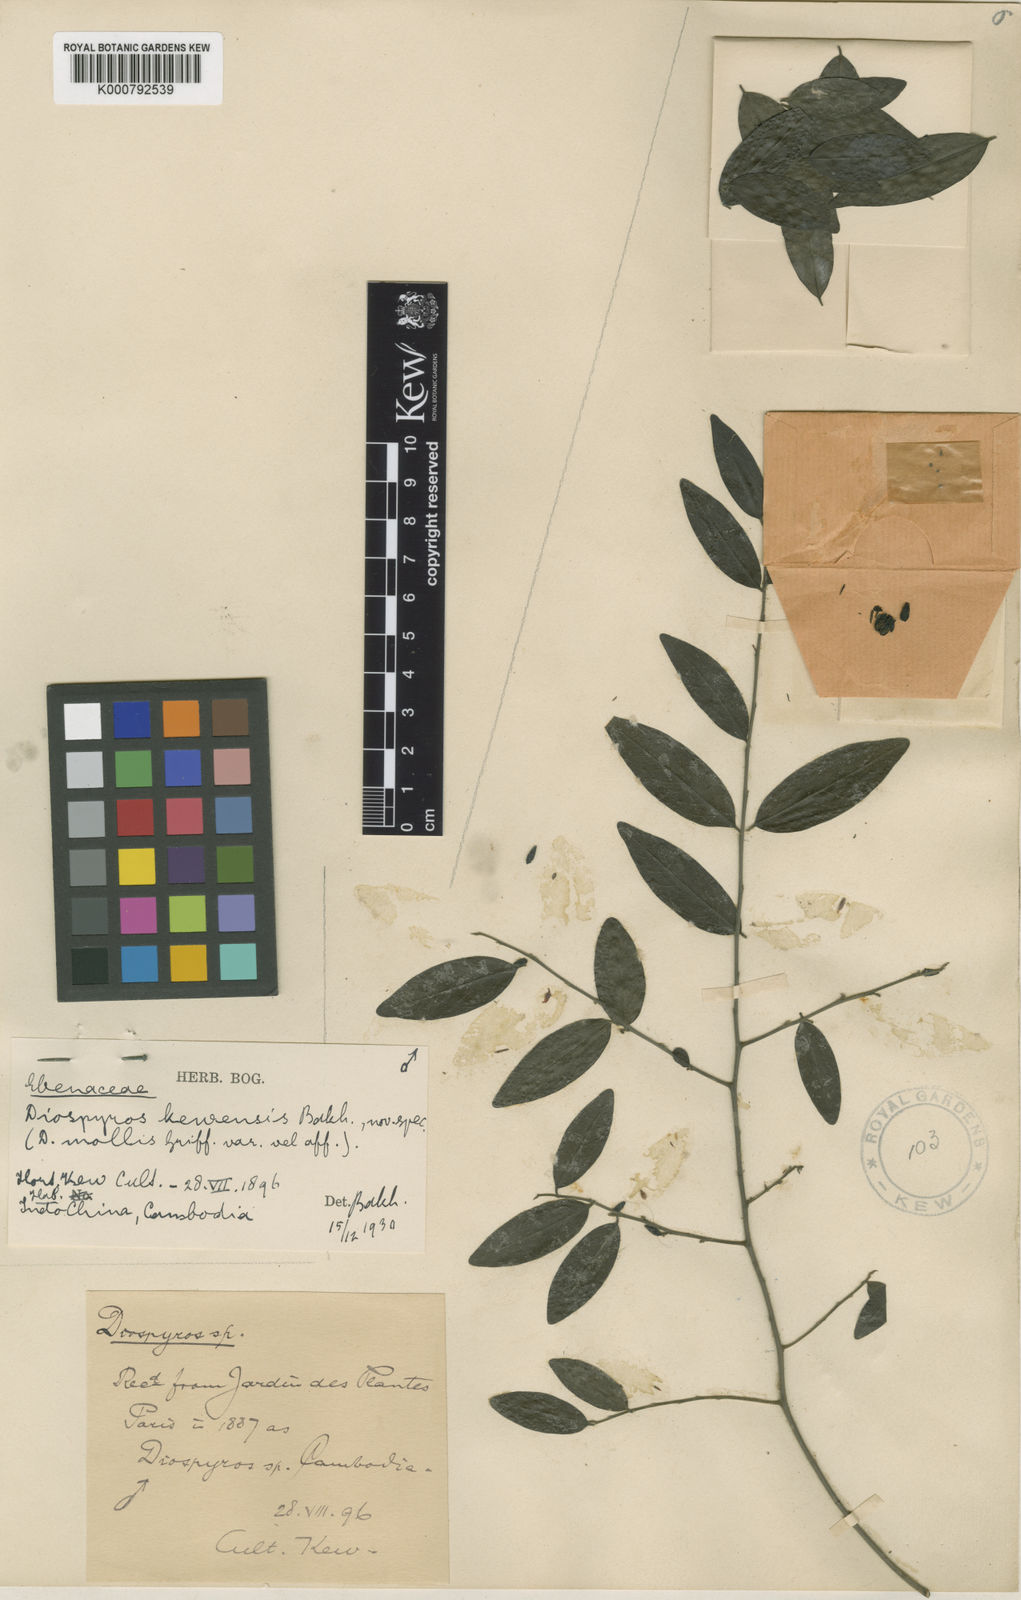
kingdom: Plantae
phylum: Tracheophyta
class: Magnoliopsida
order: Ericales
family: Ebenaceae
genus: Diospyros
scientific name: Diospyros mollis
